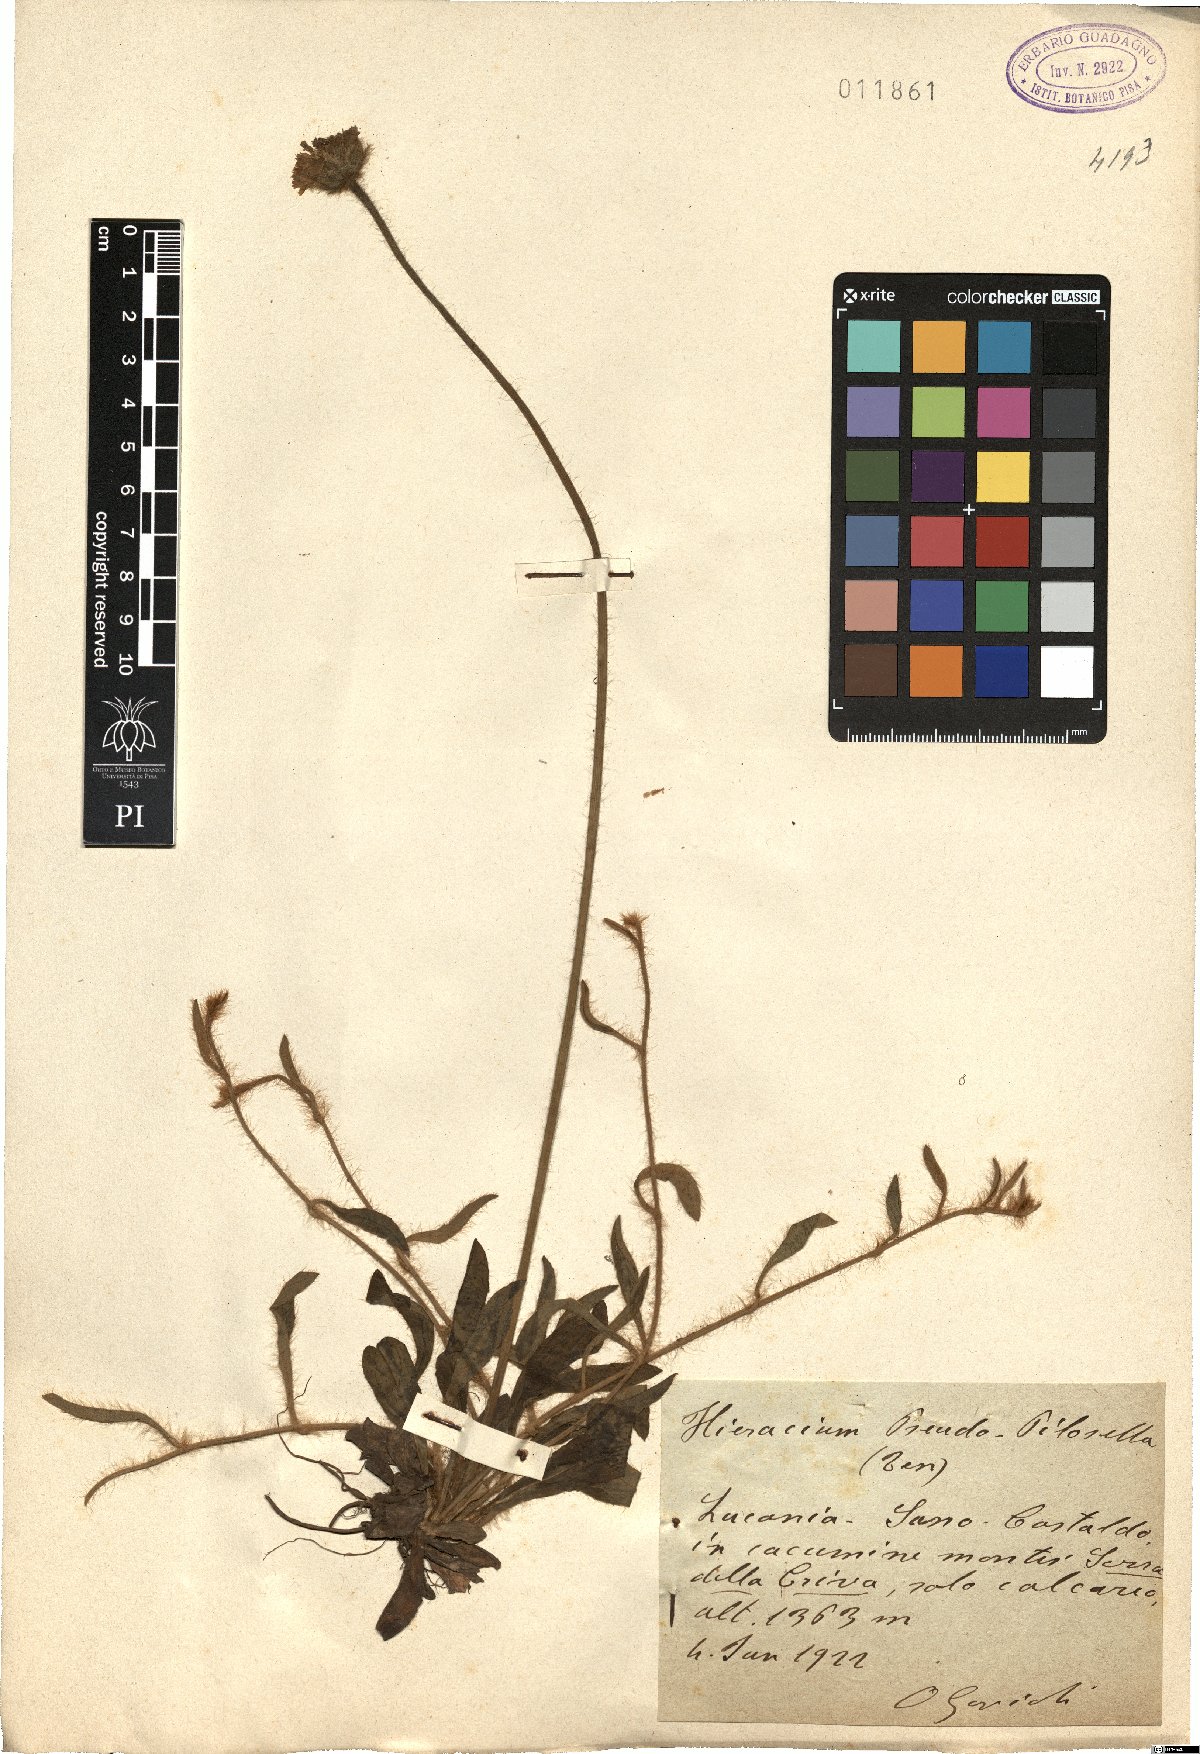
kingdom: Plantae
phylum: Tracheophyta
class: Magnoliopsida
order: Asterales
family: Asteraceae
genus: Pilosella
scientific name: Pilosella pseudopilosella
